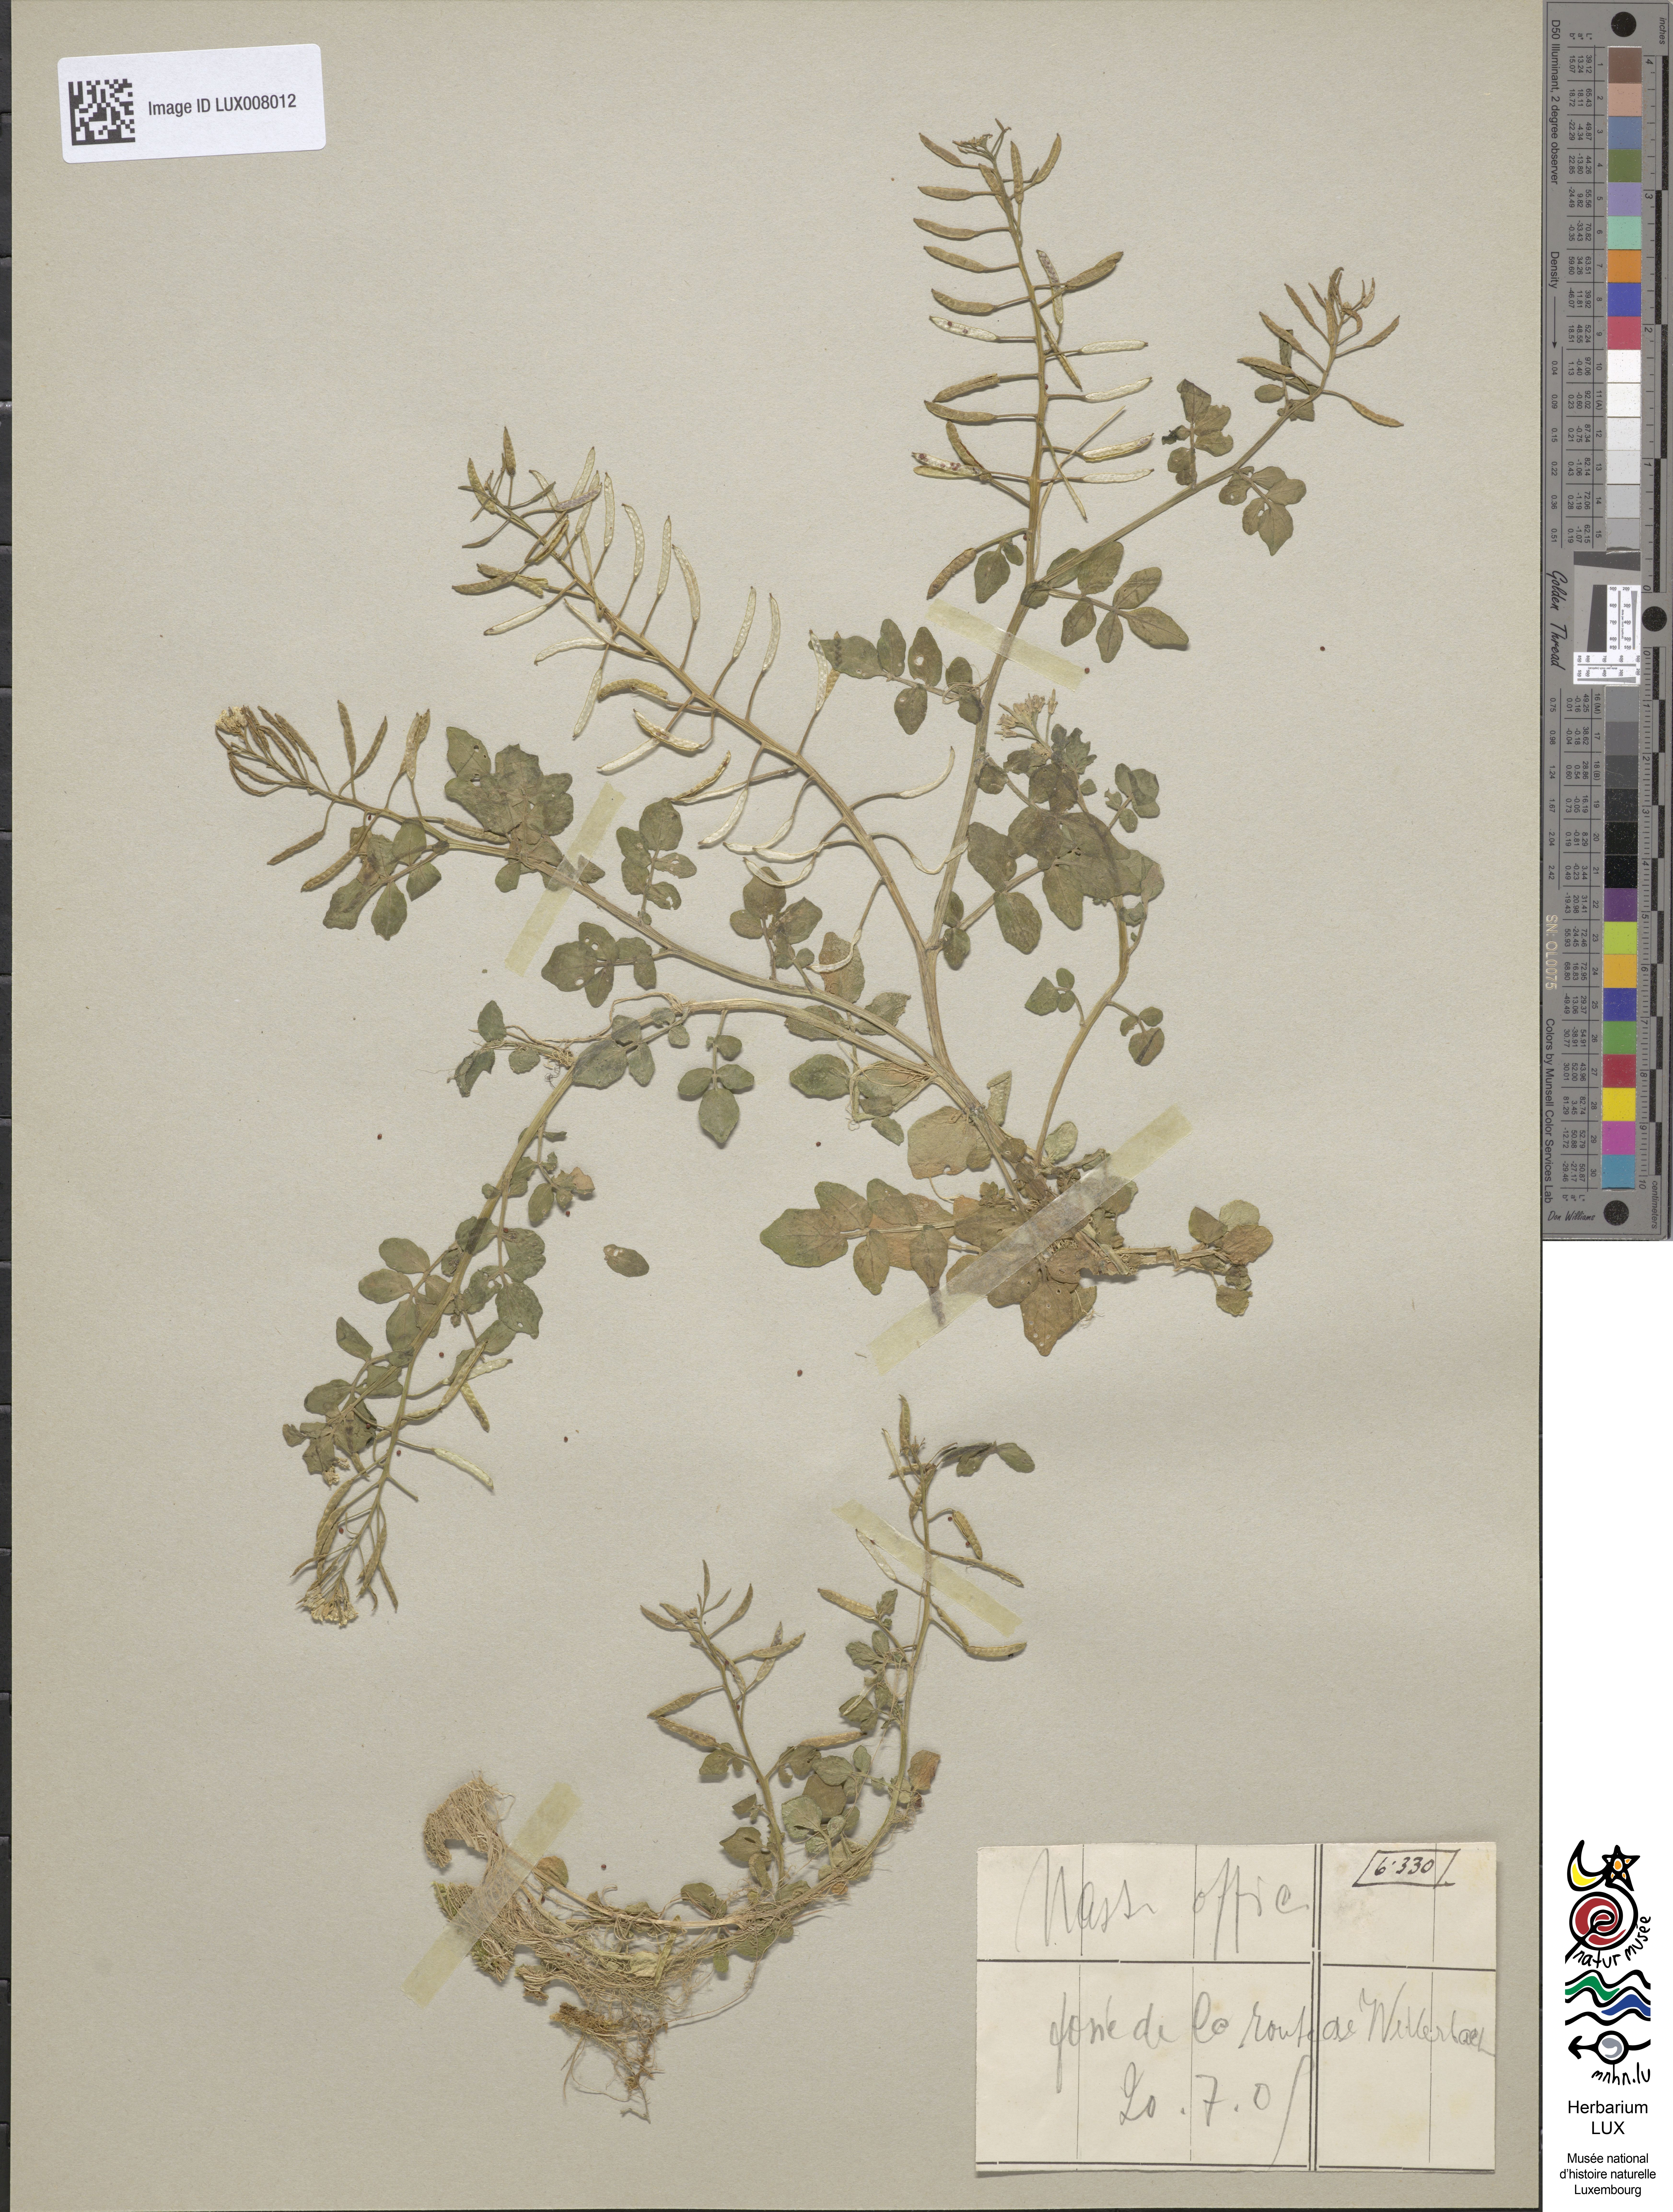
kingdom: Plantae
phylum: Tracheophyta
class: Magnoliopsida
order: Brassicales
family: Brassicaceae
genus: Nasturtium
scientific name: Nasturtium officinale
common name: Watercress
